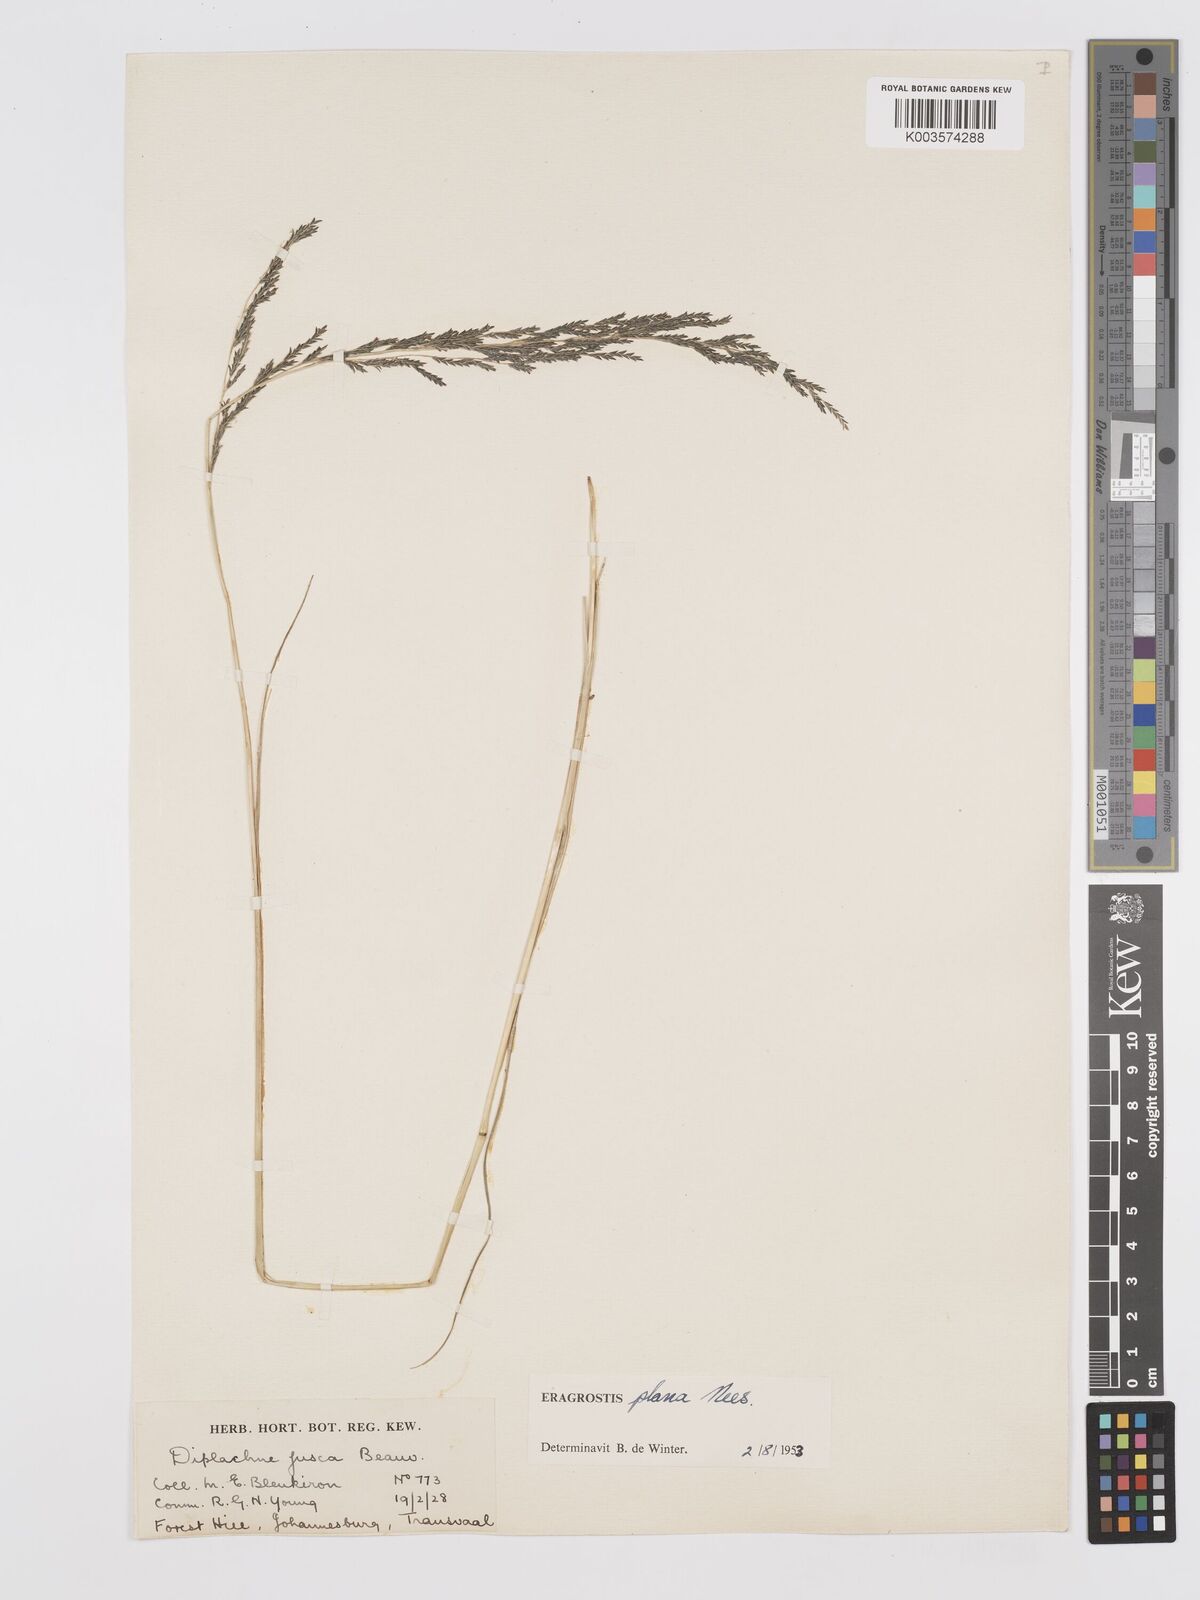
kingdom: Plantae
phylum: Tracheophyta
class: Liliopsida
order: Poales
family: Poaceae
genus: Eragrostis
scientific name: Eragrostis plana
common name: South african lovegrass
